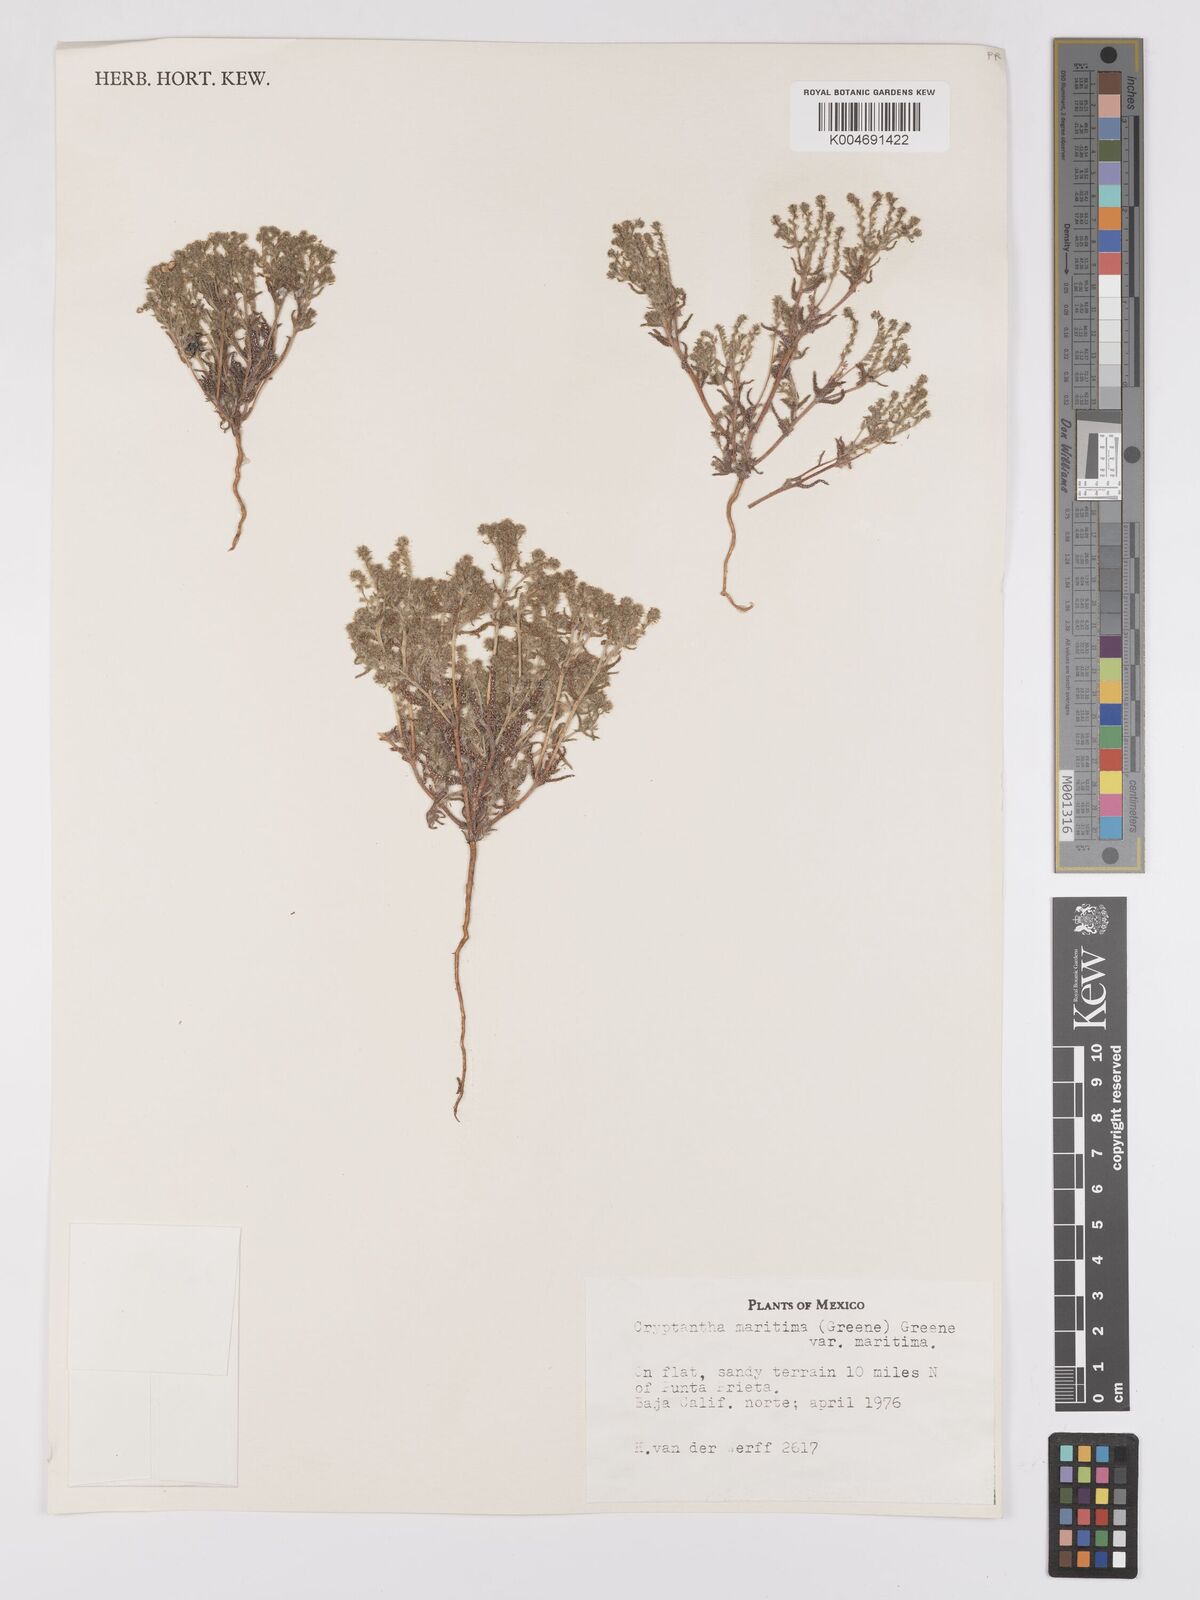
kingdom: Plantae
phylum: Tracheophyta
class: Magnoliopsida
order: Boraginales
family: Boraginaceae
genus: Cryptantha
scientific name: Cryptantha maritima
